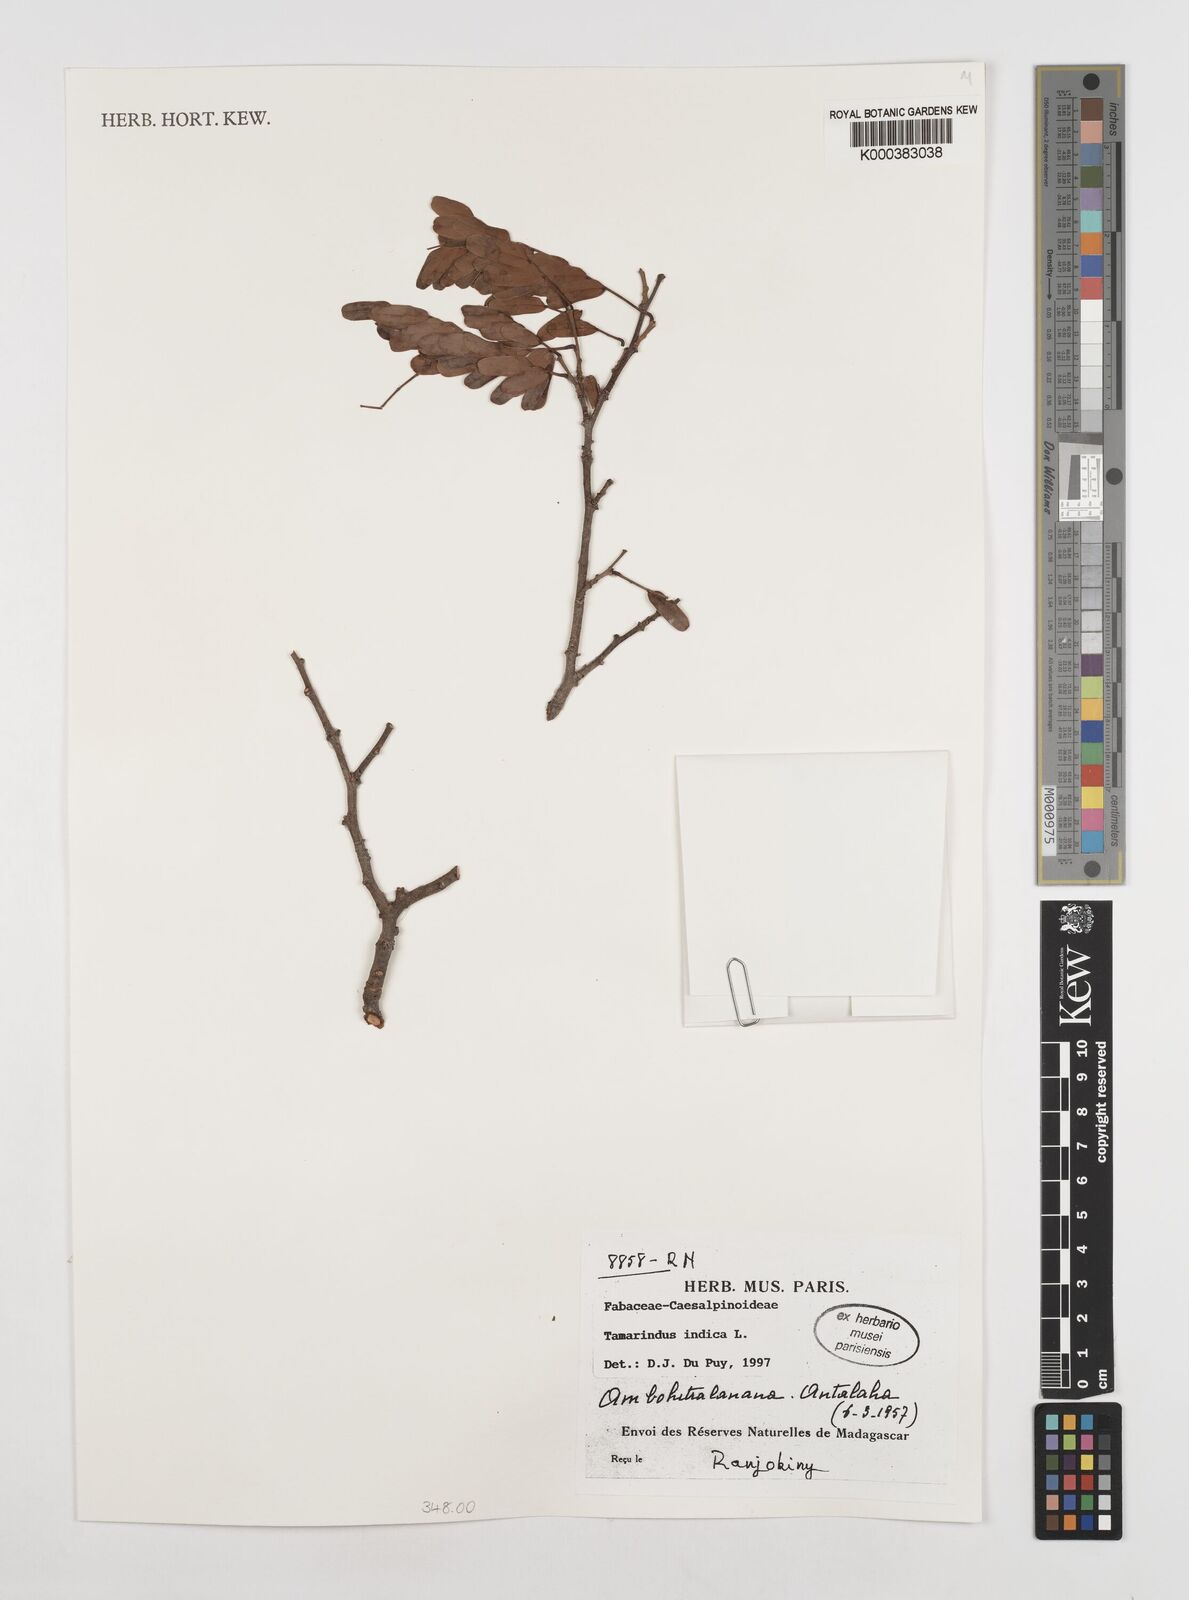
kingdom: Plantae
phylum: Tracheophyta
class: Magnoliopsida
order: Fabales
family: Fabaceae
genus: Tamarindus
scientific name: Tamarindus indica
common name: Tamarind
